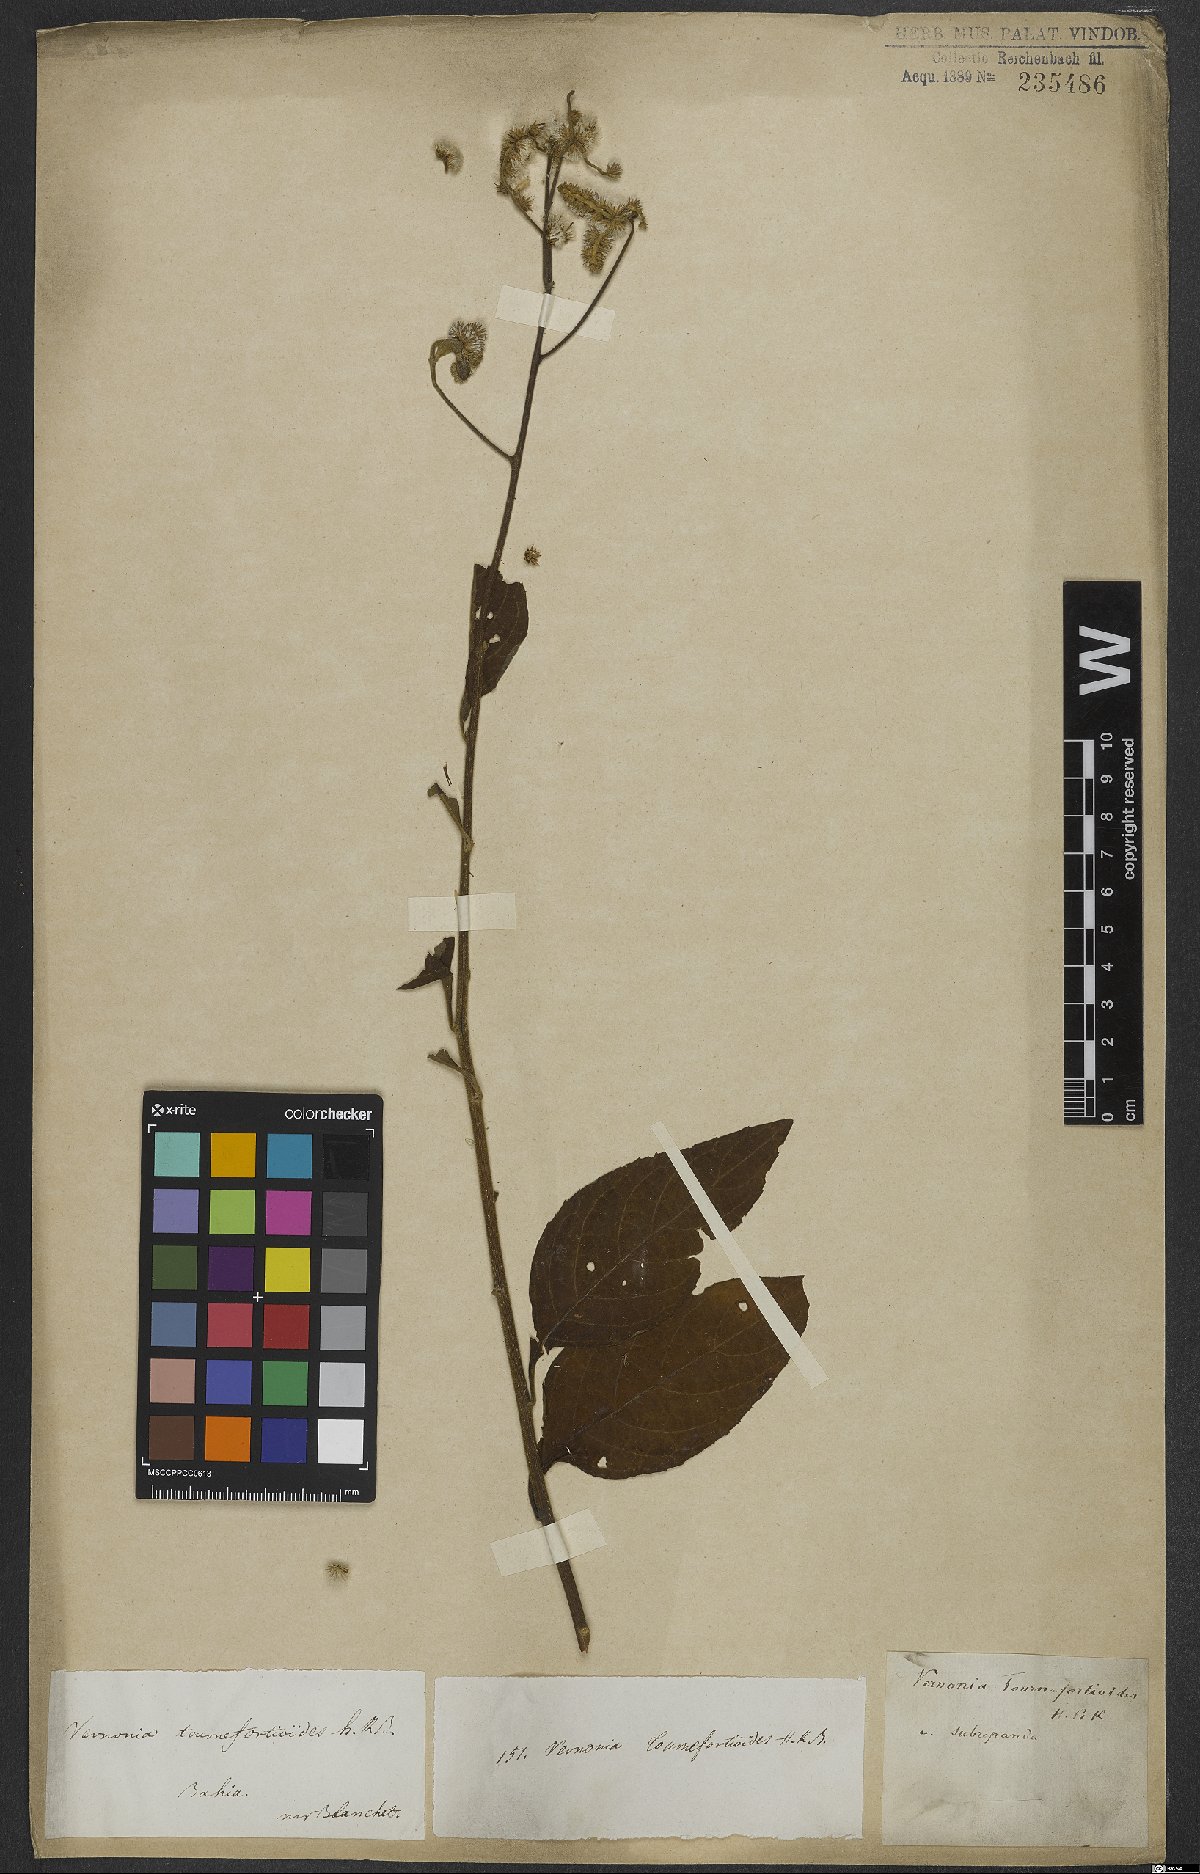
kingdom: Plantae
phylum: Tracheophyta
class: Magnoliopsida
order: Asterales
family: Asteraceae
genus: Cyrtocymura
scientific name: Cyrtocymura scorpioides
